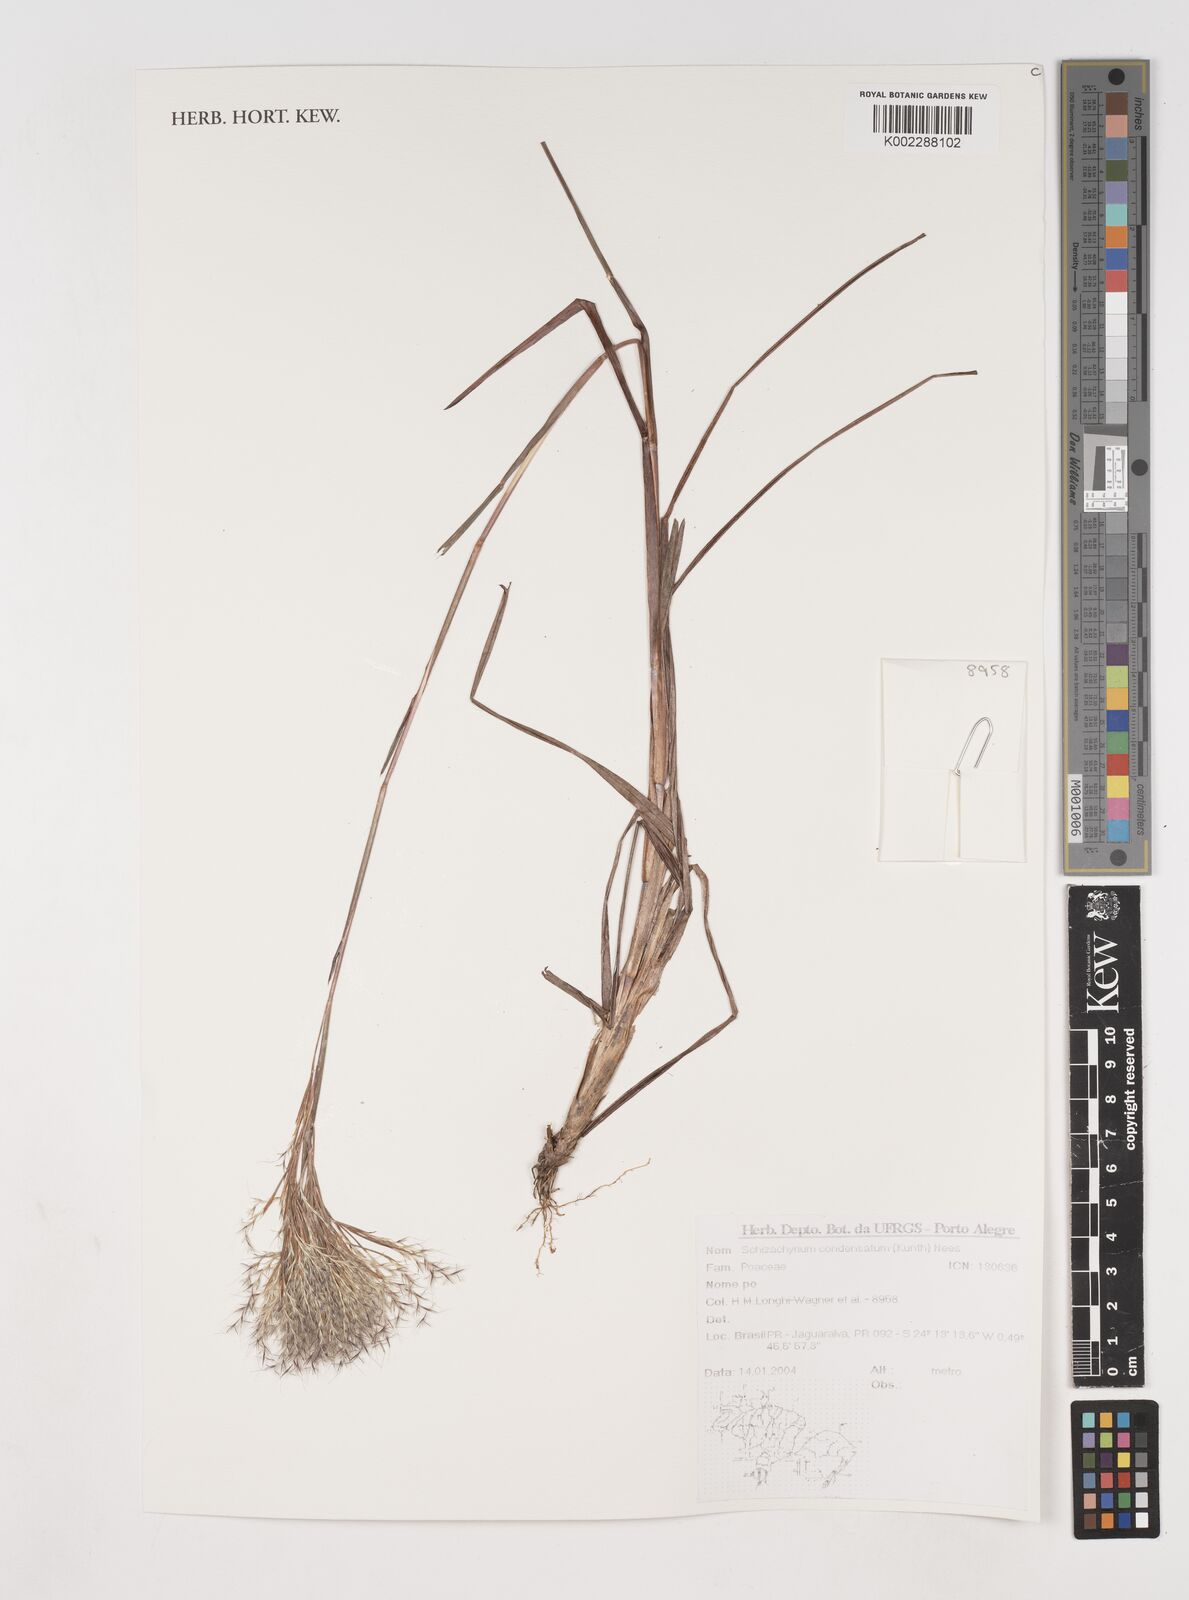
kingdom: Plantae
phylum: Tracheophyta
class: Liliopsida
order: Poales
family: Poaceae
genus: Schizachyrium
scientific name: Schizachyrium condensatum
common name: Bush beardgrass
